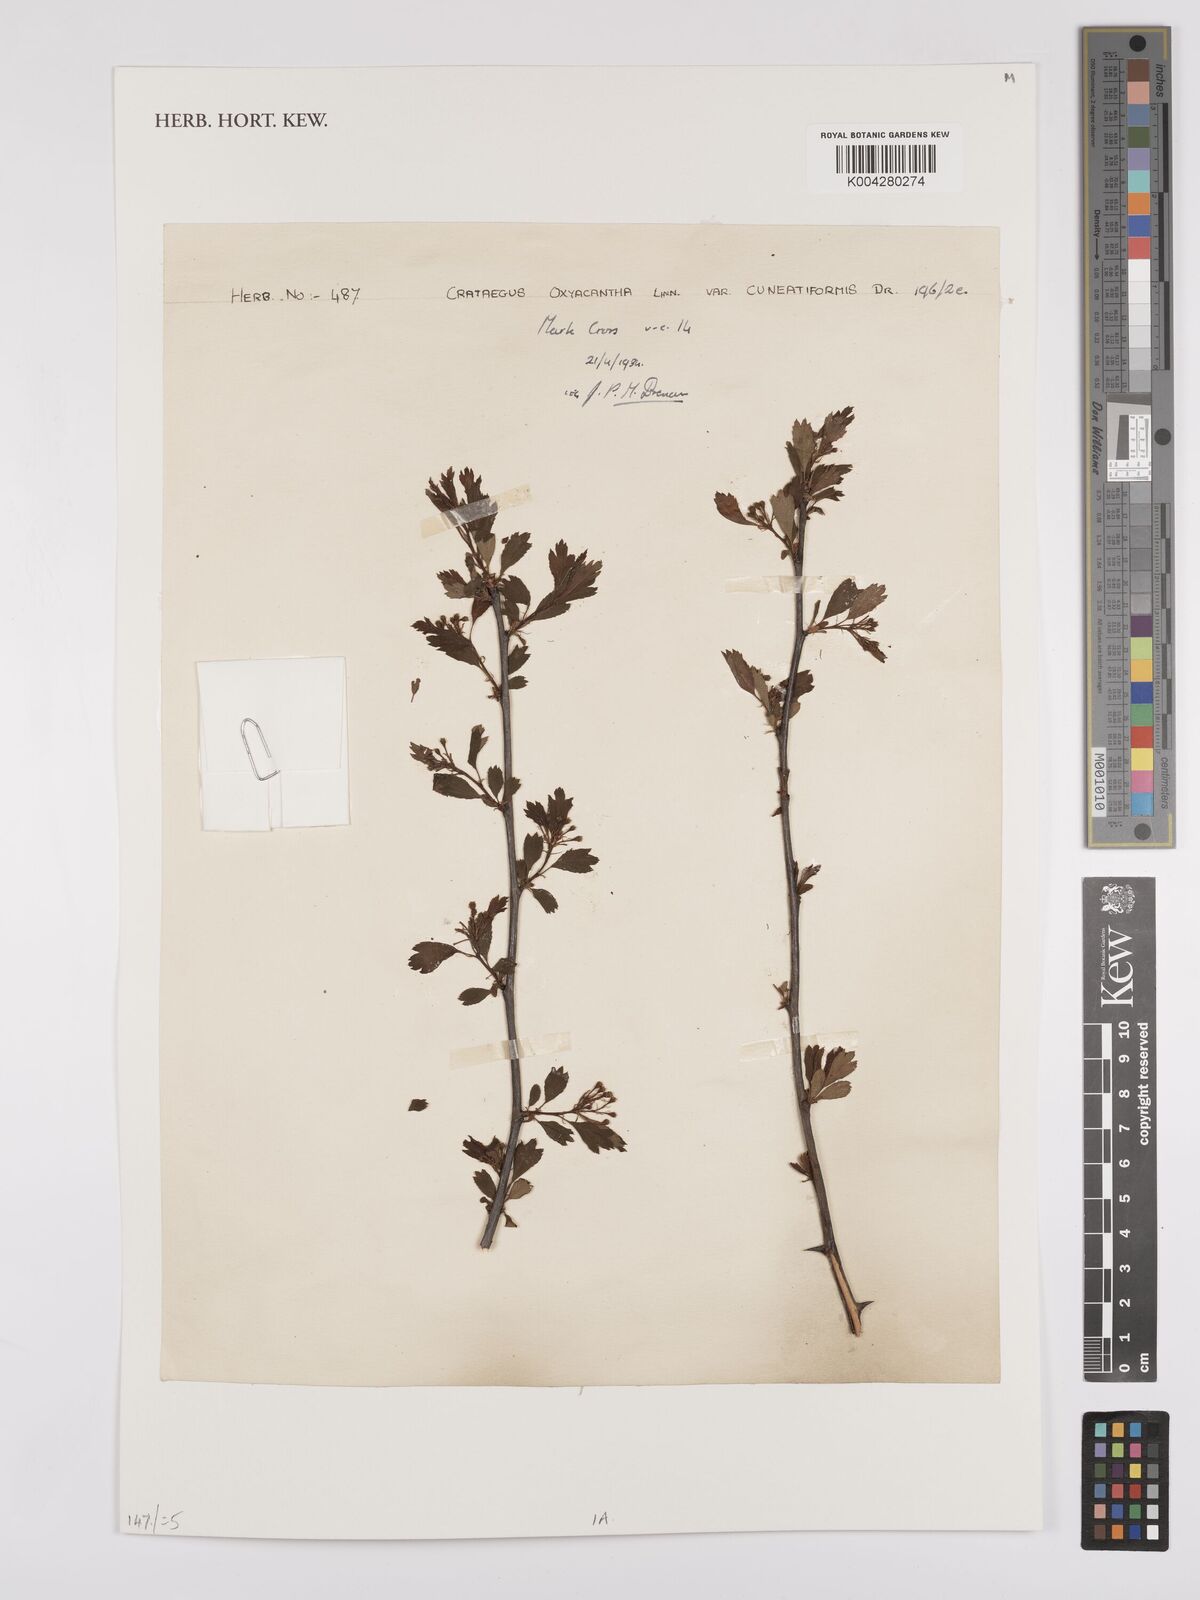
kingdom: Plantae
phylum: Tracheophyta
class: Magnoliopsida
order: Rosales
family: Rosaceae
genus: Crataegus
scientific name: Crataegus laevigata
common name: Midland hawthorn
